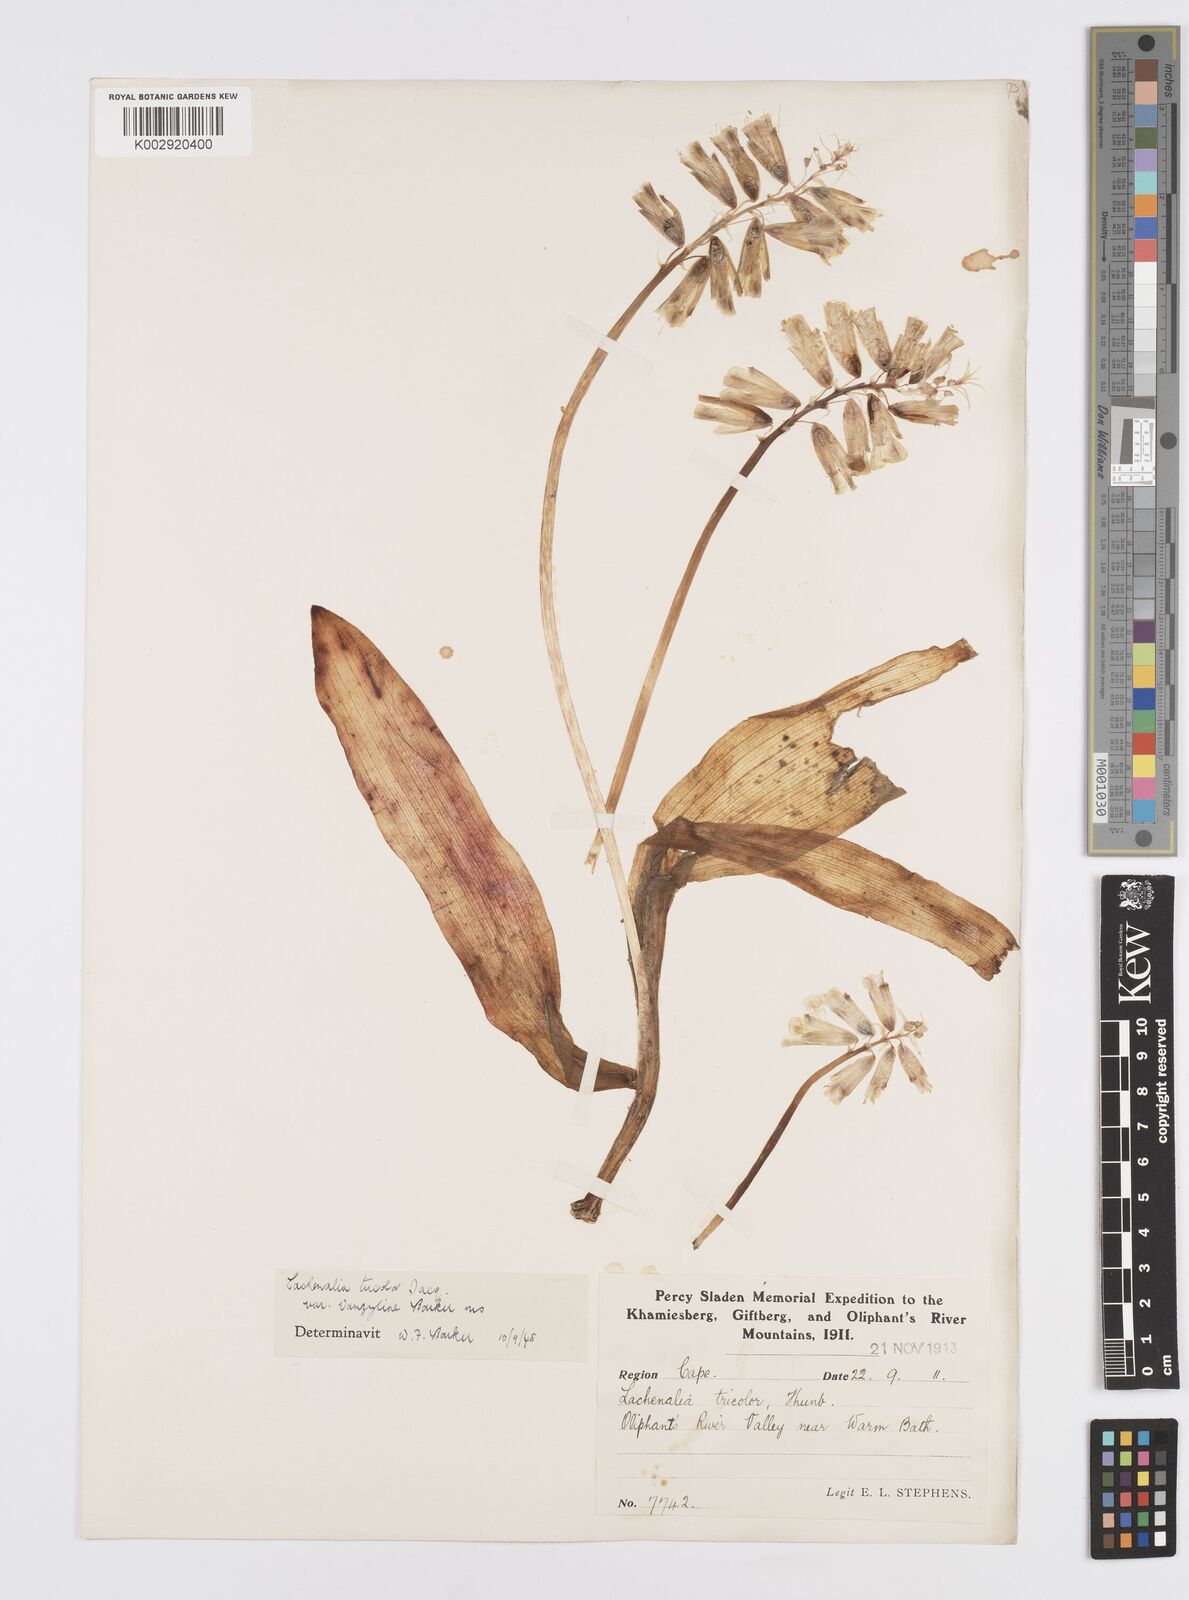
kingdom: Plantae
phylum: Tracheophyta
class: Liliopsida
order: Asparagales
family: Asparagaceae
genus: Lachenalia
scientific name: Lachenalia
